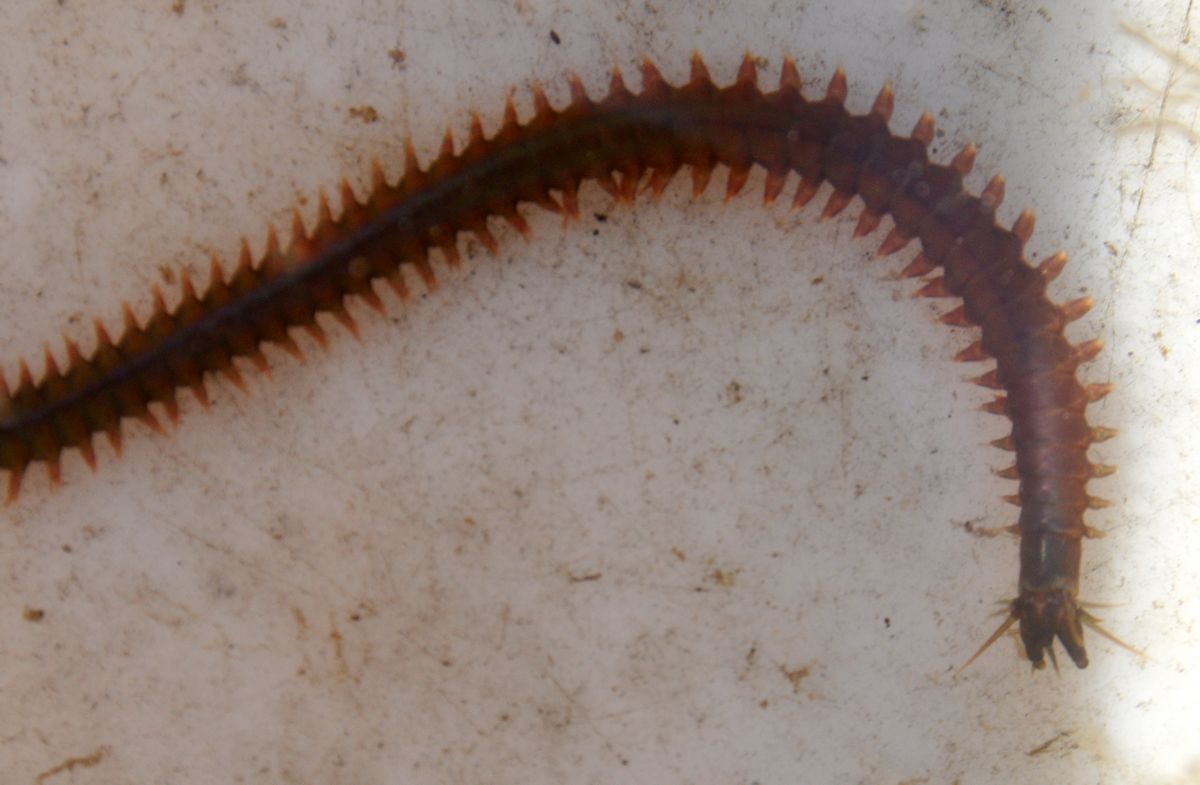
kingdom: Animalia
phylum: Annelida
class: Polychaeta
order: Phyllodocida
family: Nereididae
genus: Nereis
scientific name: Nereis pelagica
